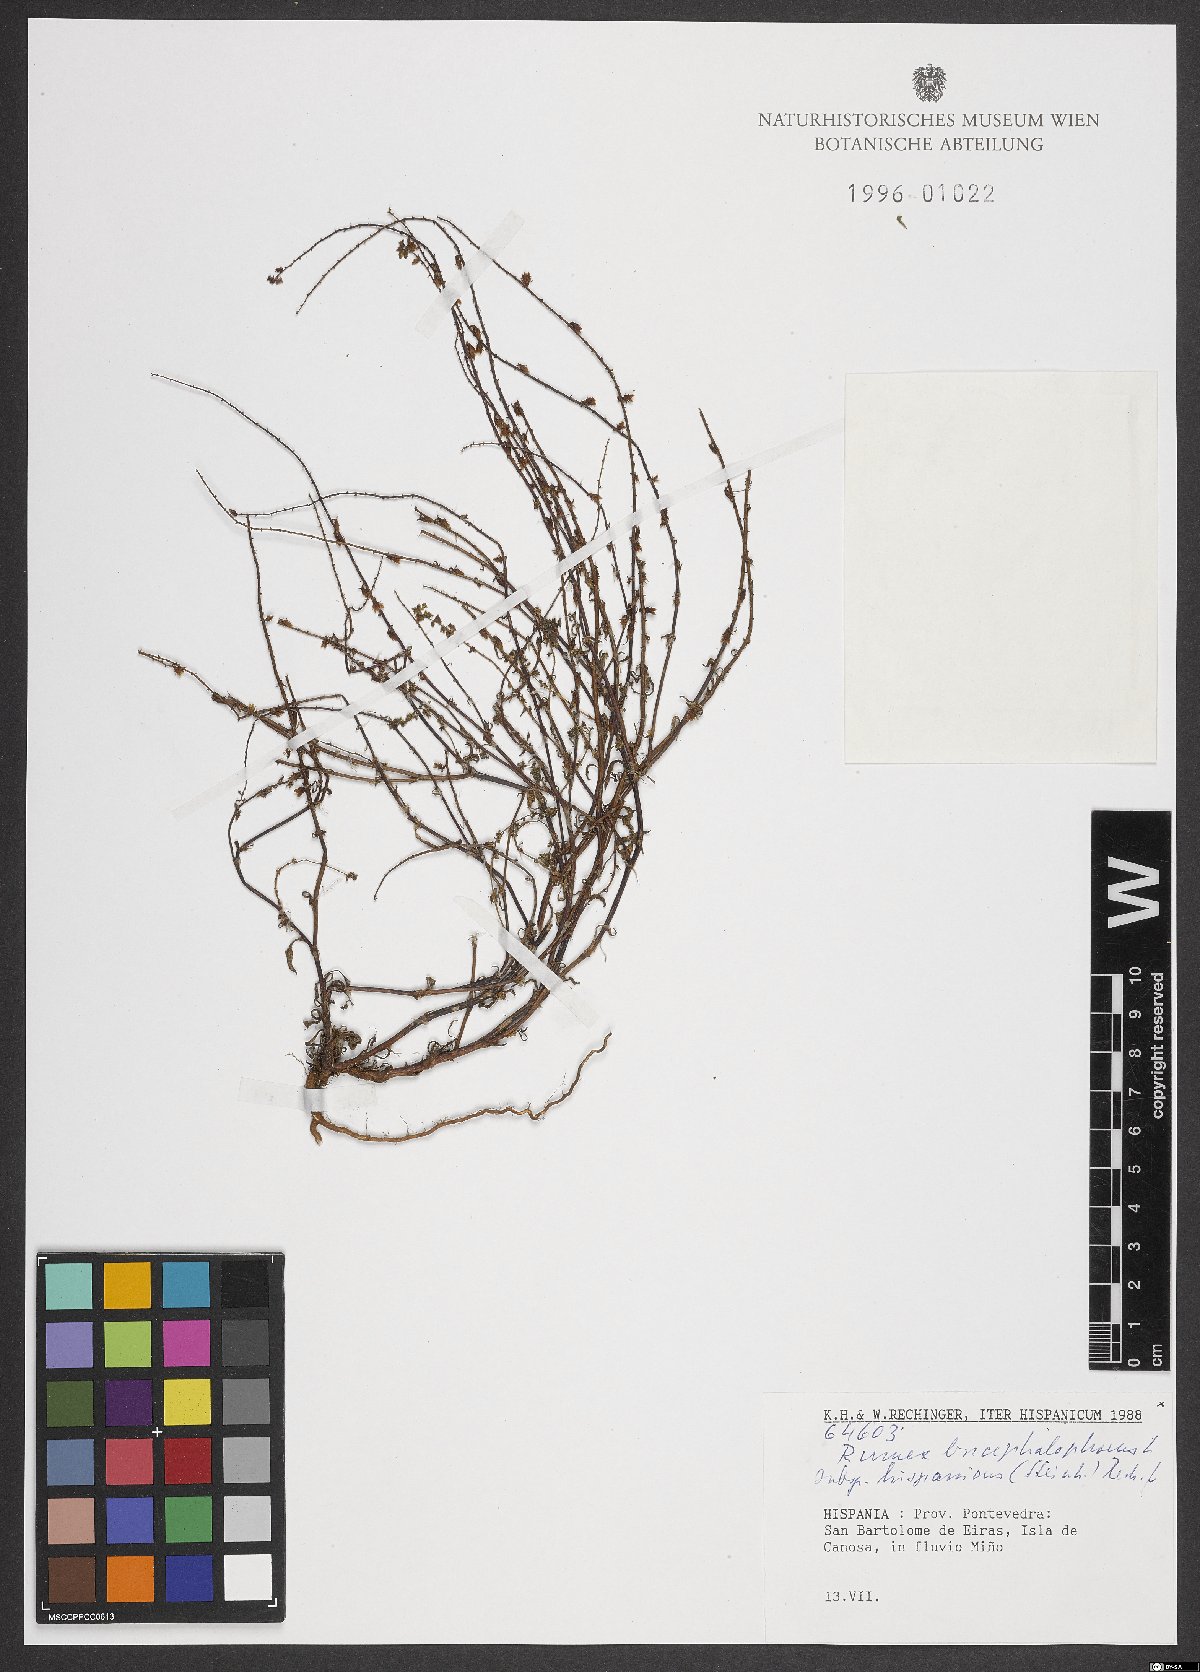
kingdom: Plantae
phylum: Tracheophyta
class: Magnoliopsida
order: Caryophyllales
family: Polygonaceae
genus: Rumex
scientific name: Rumex bucephalophorus
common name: Red dock
